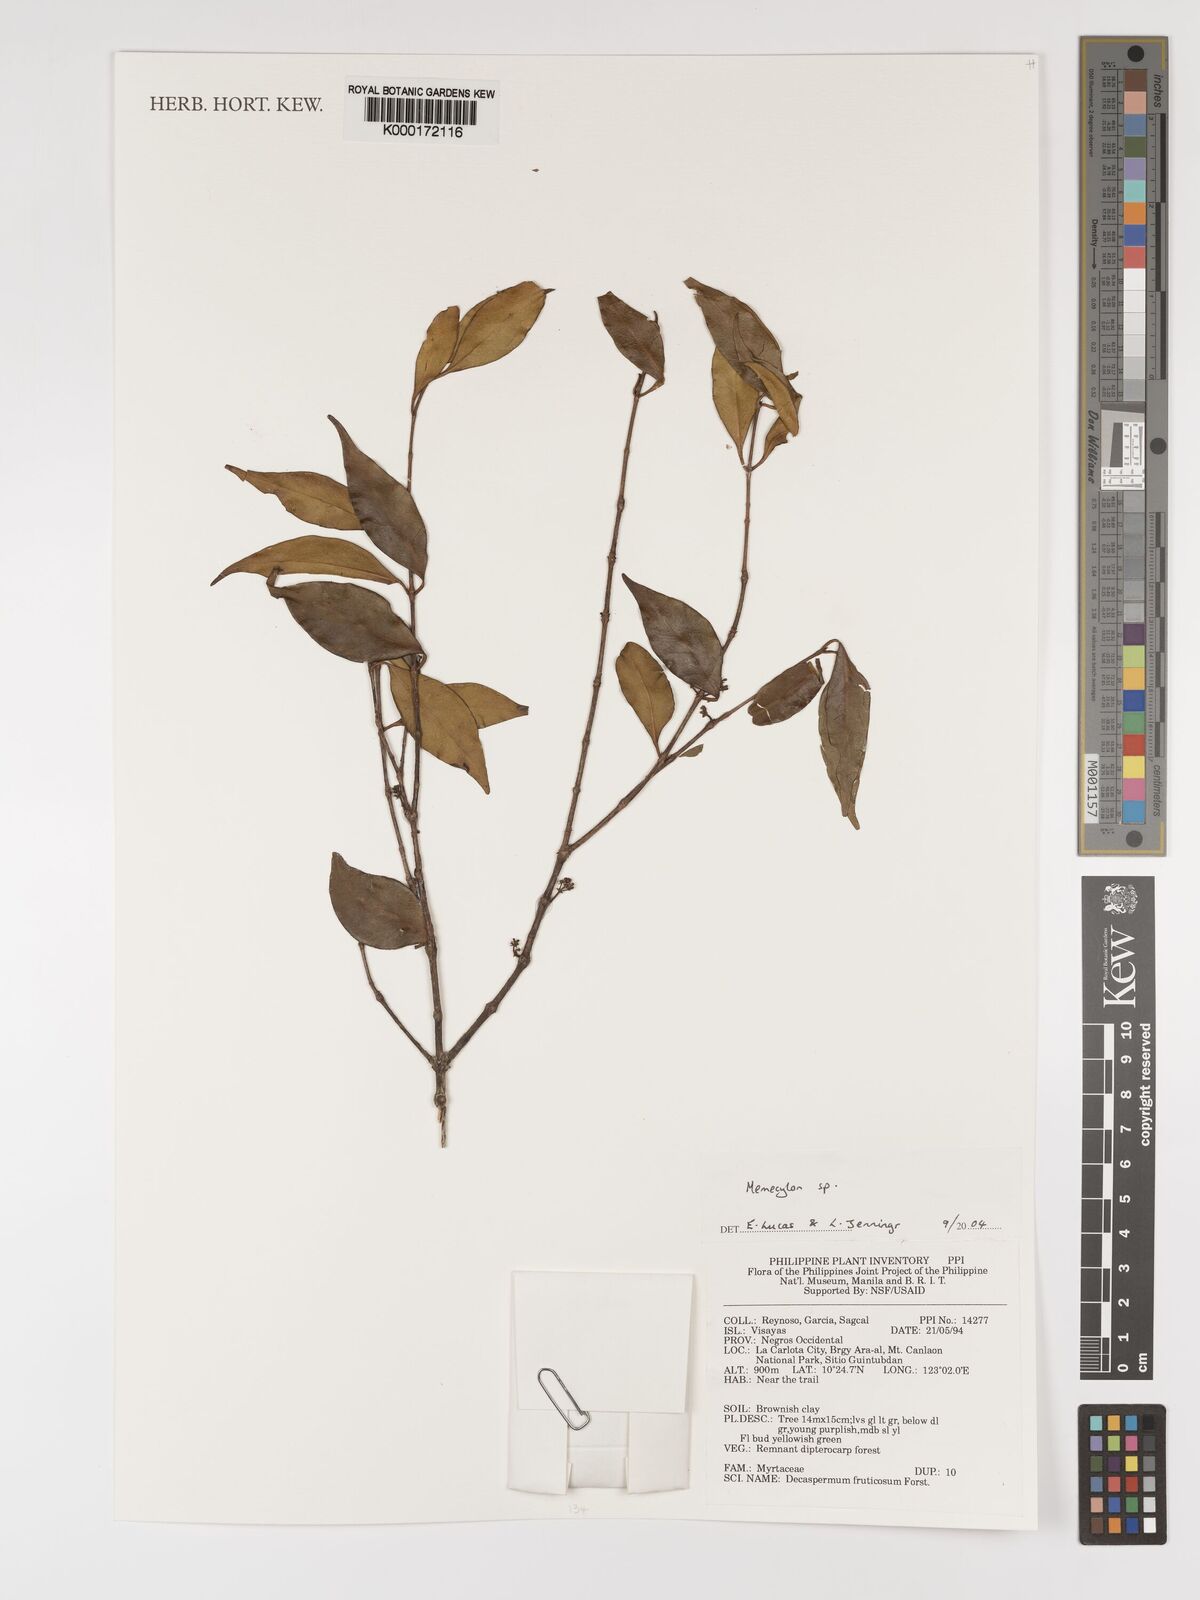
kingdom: Plantae
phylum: Tracheophyta
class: Magnoliopsida
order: Myrtales
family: Melastomataceae
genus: Memecylon
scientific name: Memecylon
